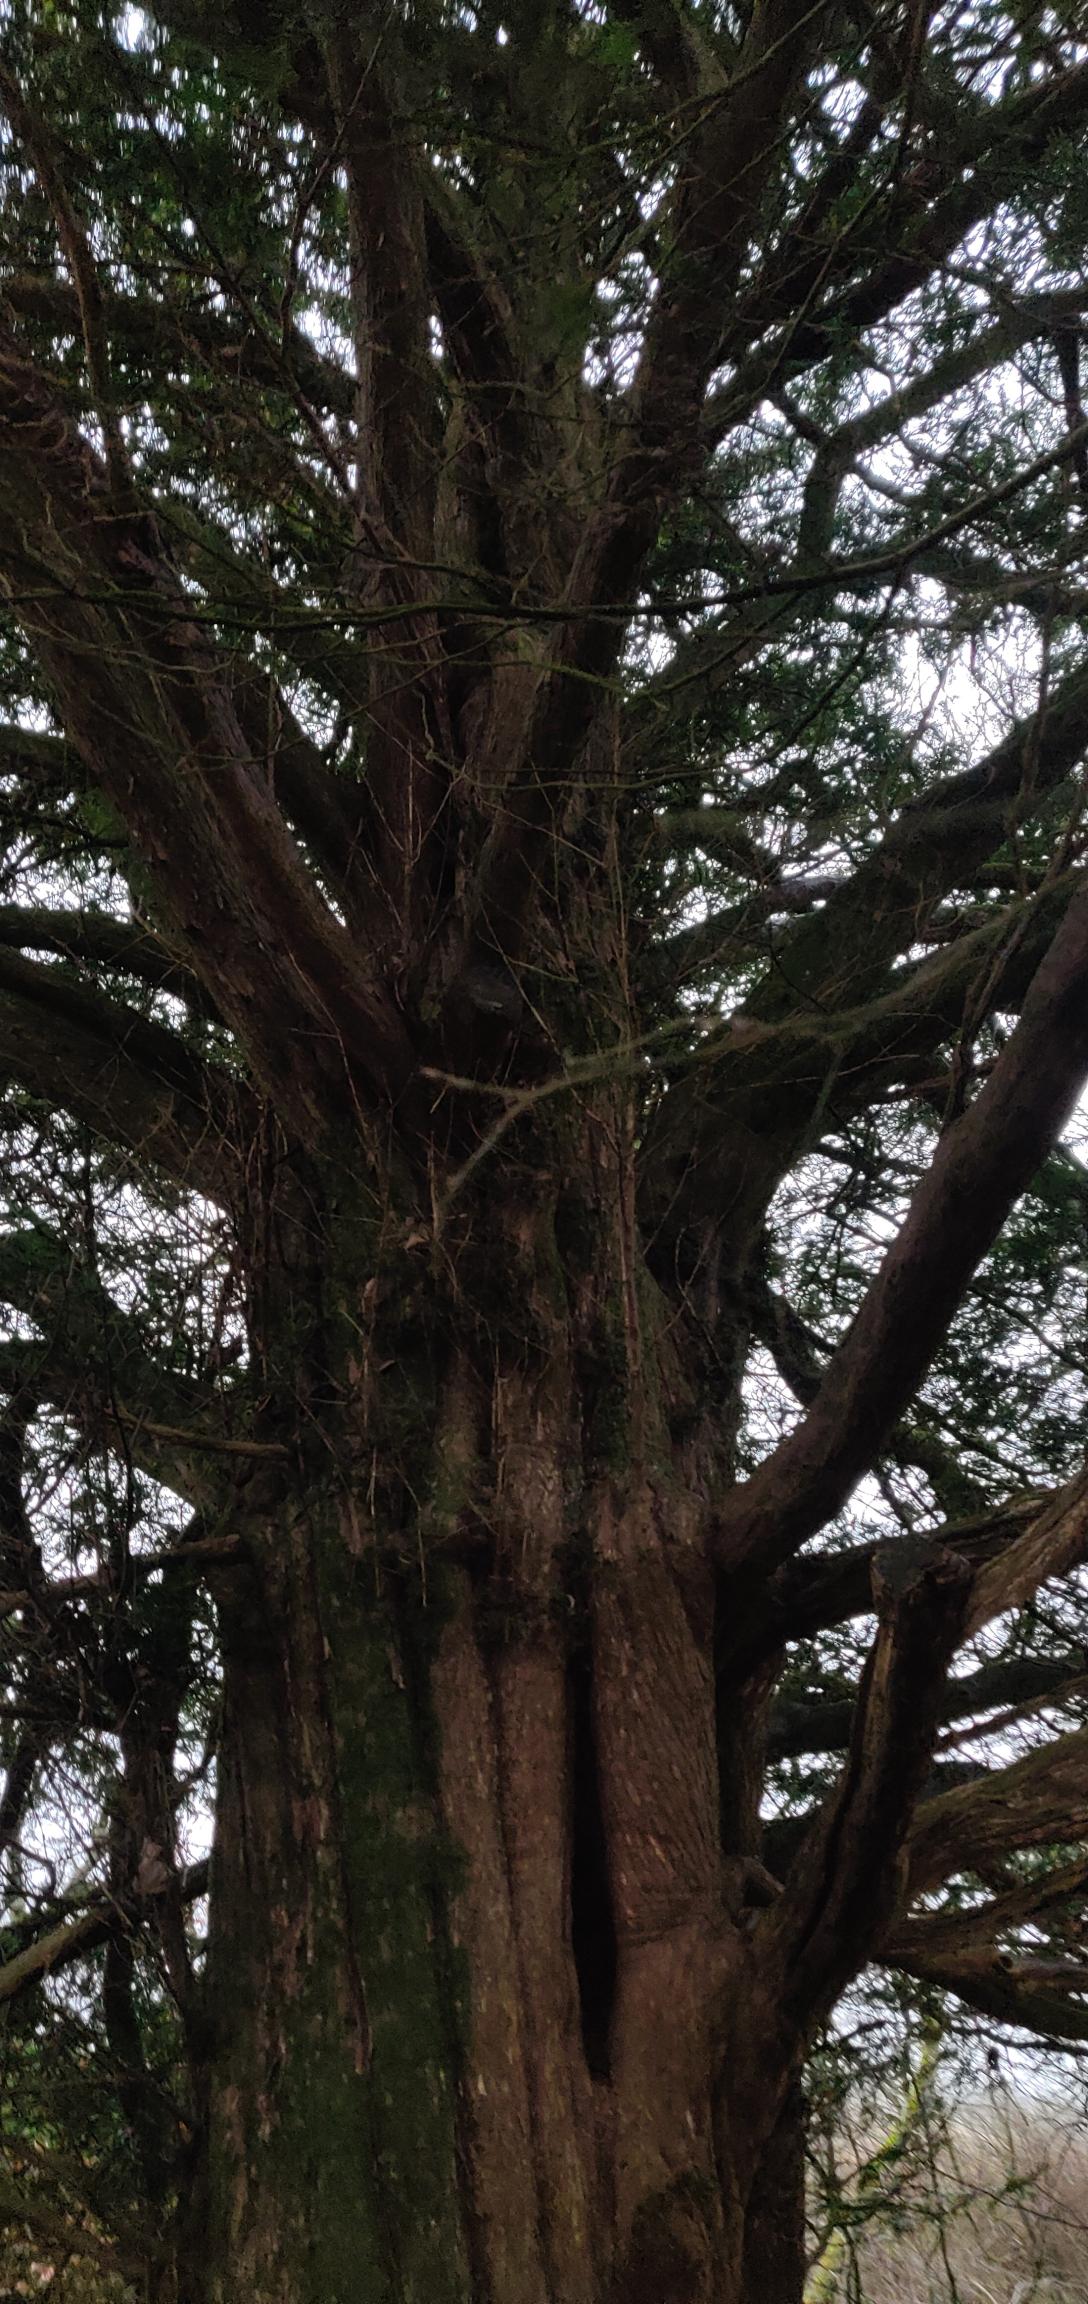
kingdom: Plantae
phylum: Tracheophyta
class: Pinopsida
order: Pinales
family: Taxaceae
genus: Taxus
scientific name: Taxus baccata
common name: Almindelig taks
